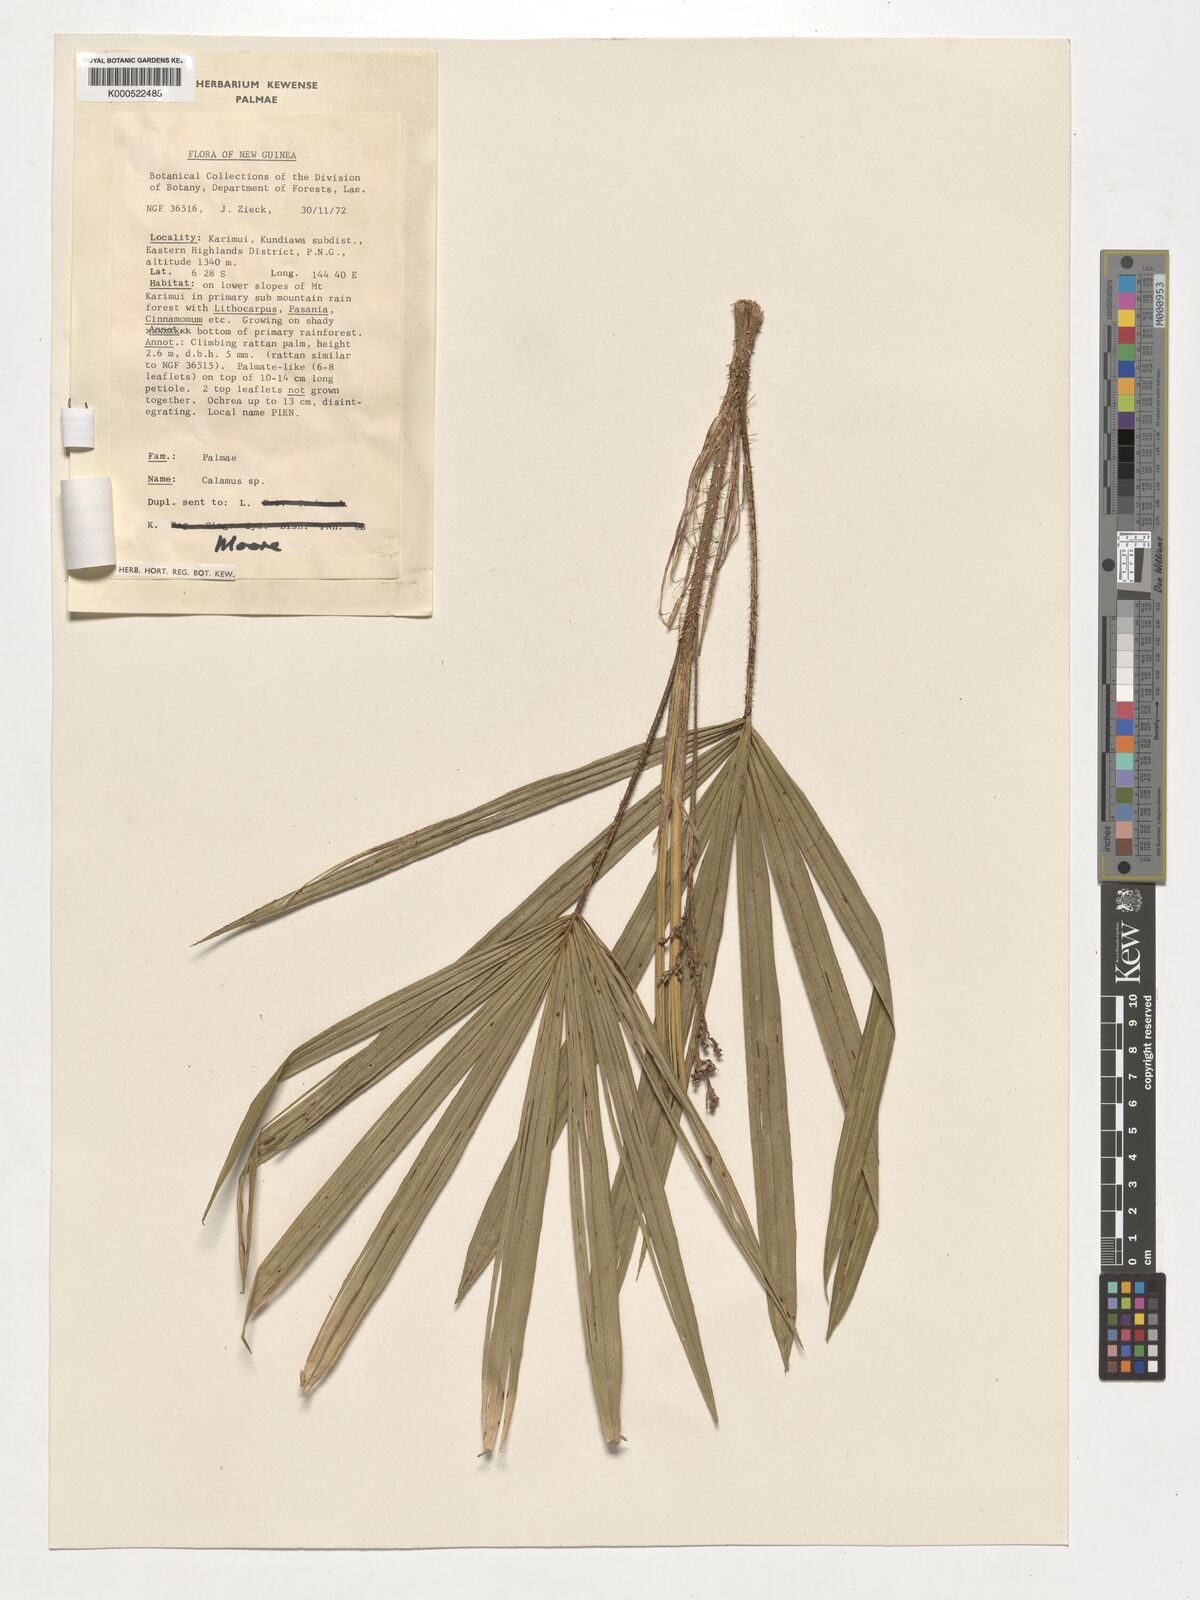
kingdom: Plantae
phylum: Tracheophyta
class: Liliopsida
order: Arecales
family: Arecaceae
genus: Calamus
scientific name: Calamus cheirophyllus
